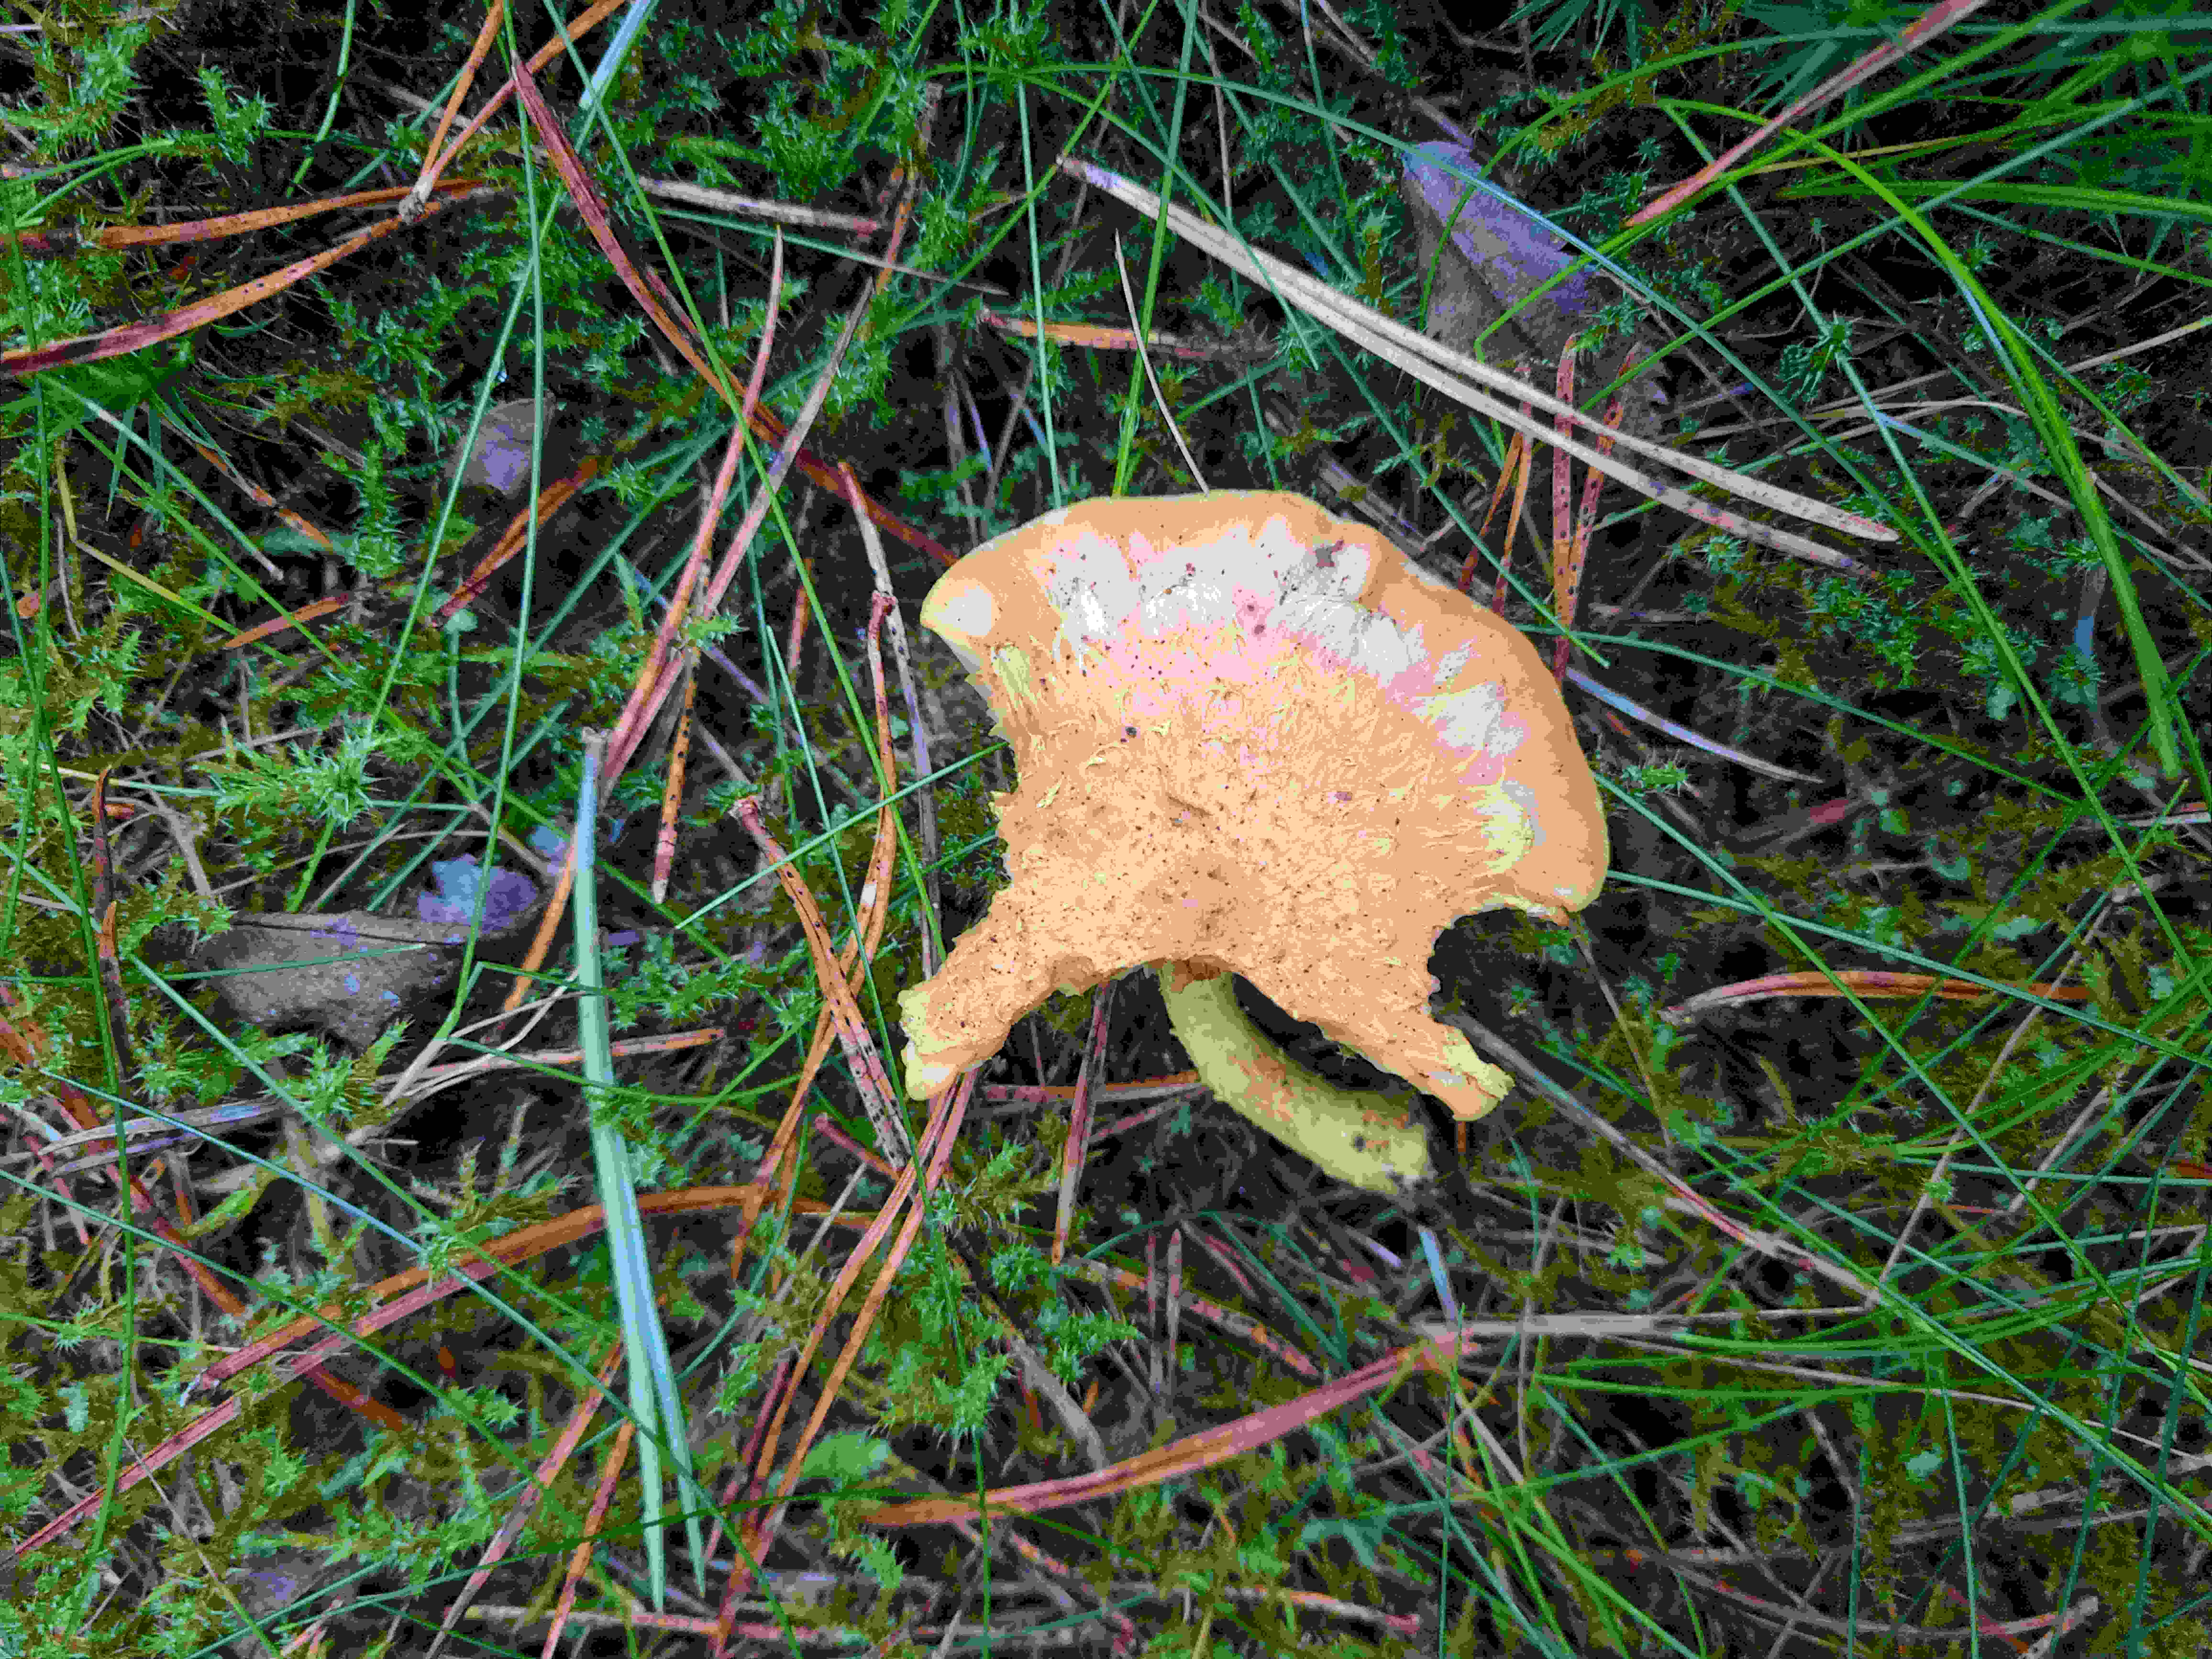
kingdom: Fungi
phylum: Basidiomycota
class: Agaricomycetes
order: Agaricales
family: Strophariaceae
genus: Pholiota
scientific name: Pholiota flammans
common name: flamme-skælhat
